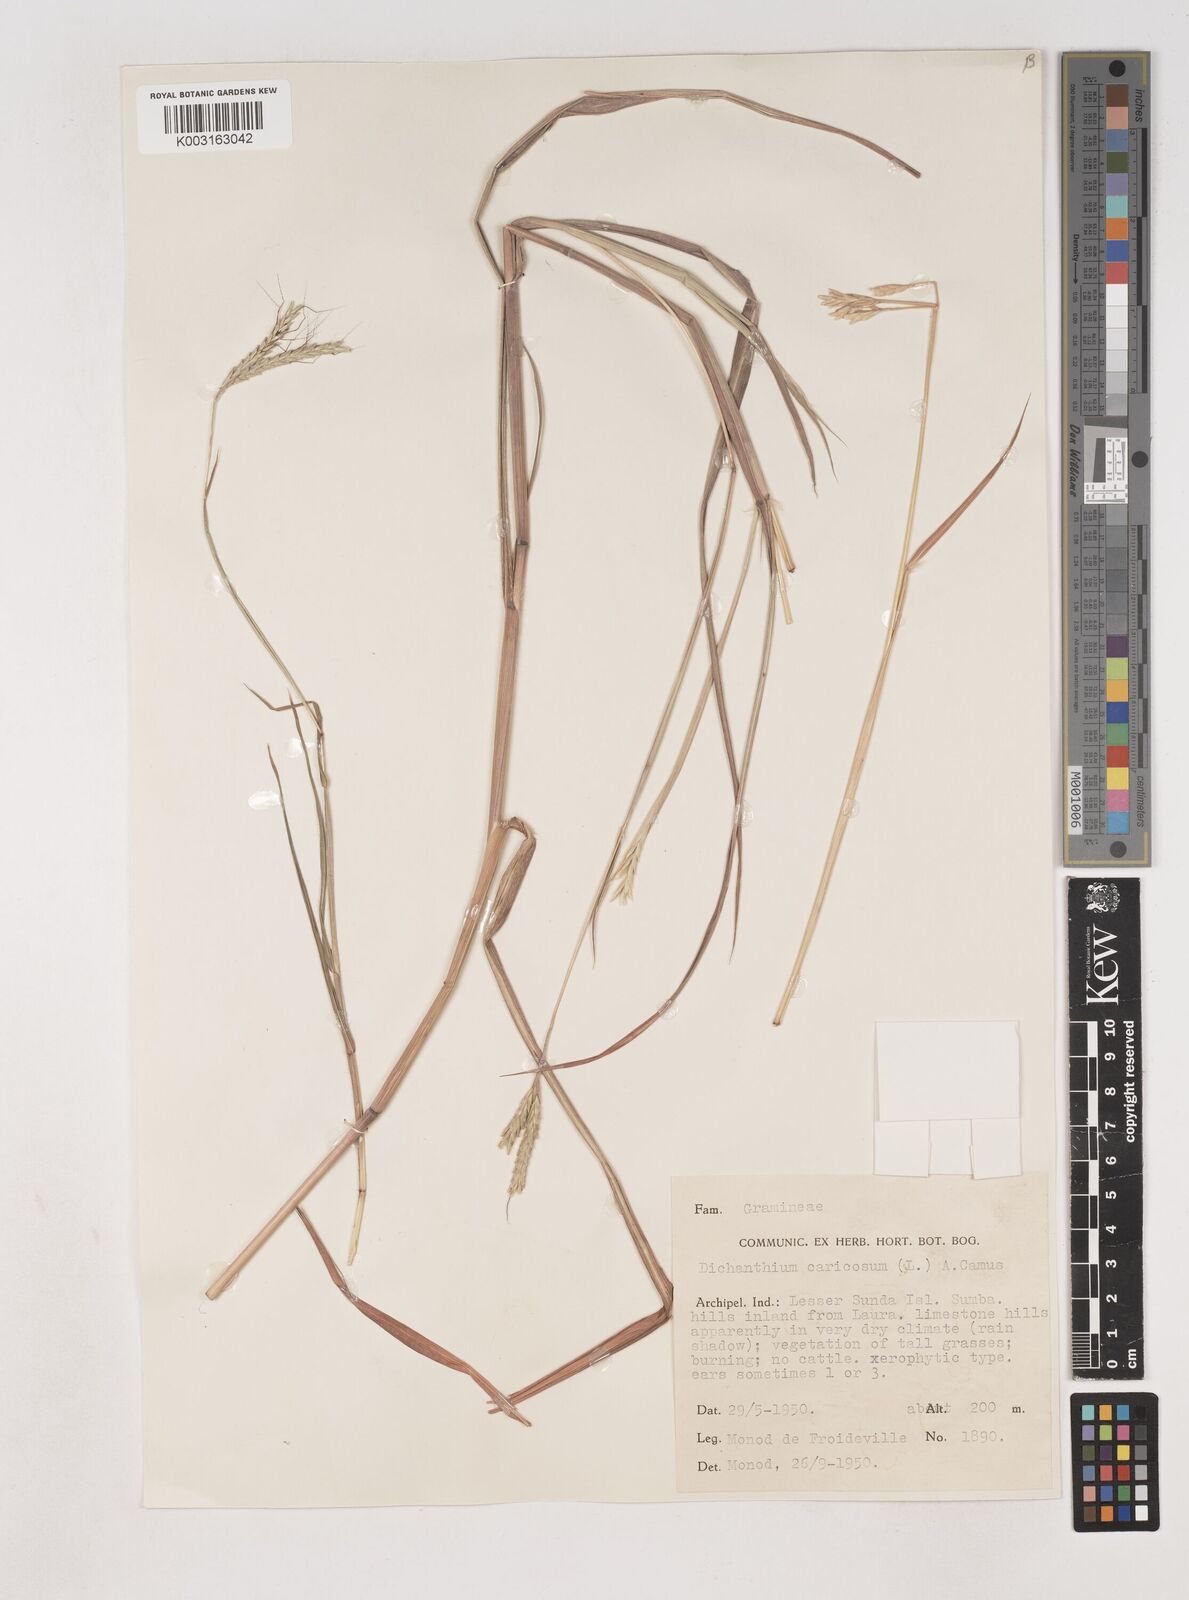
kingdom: Plantae
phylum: Tracheophyta
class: Liliopsida
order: Poales
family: Poaceae
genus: Dichanthium
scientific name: Dichanthium aristatum
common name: Angleton bluestem
